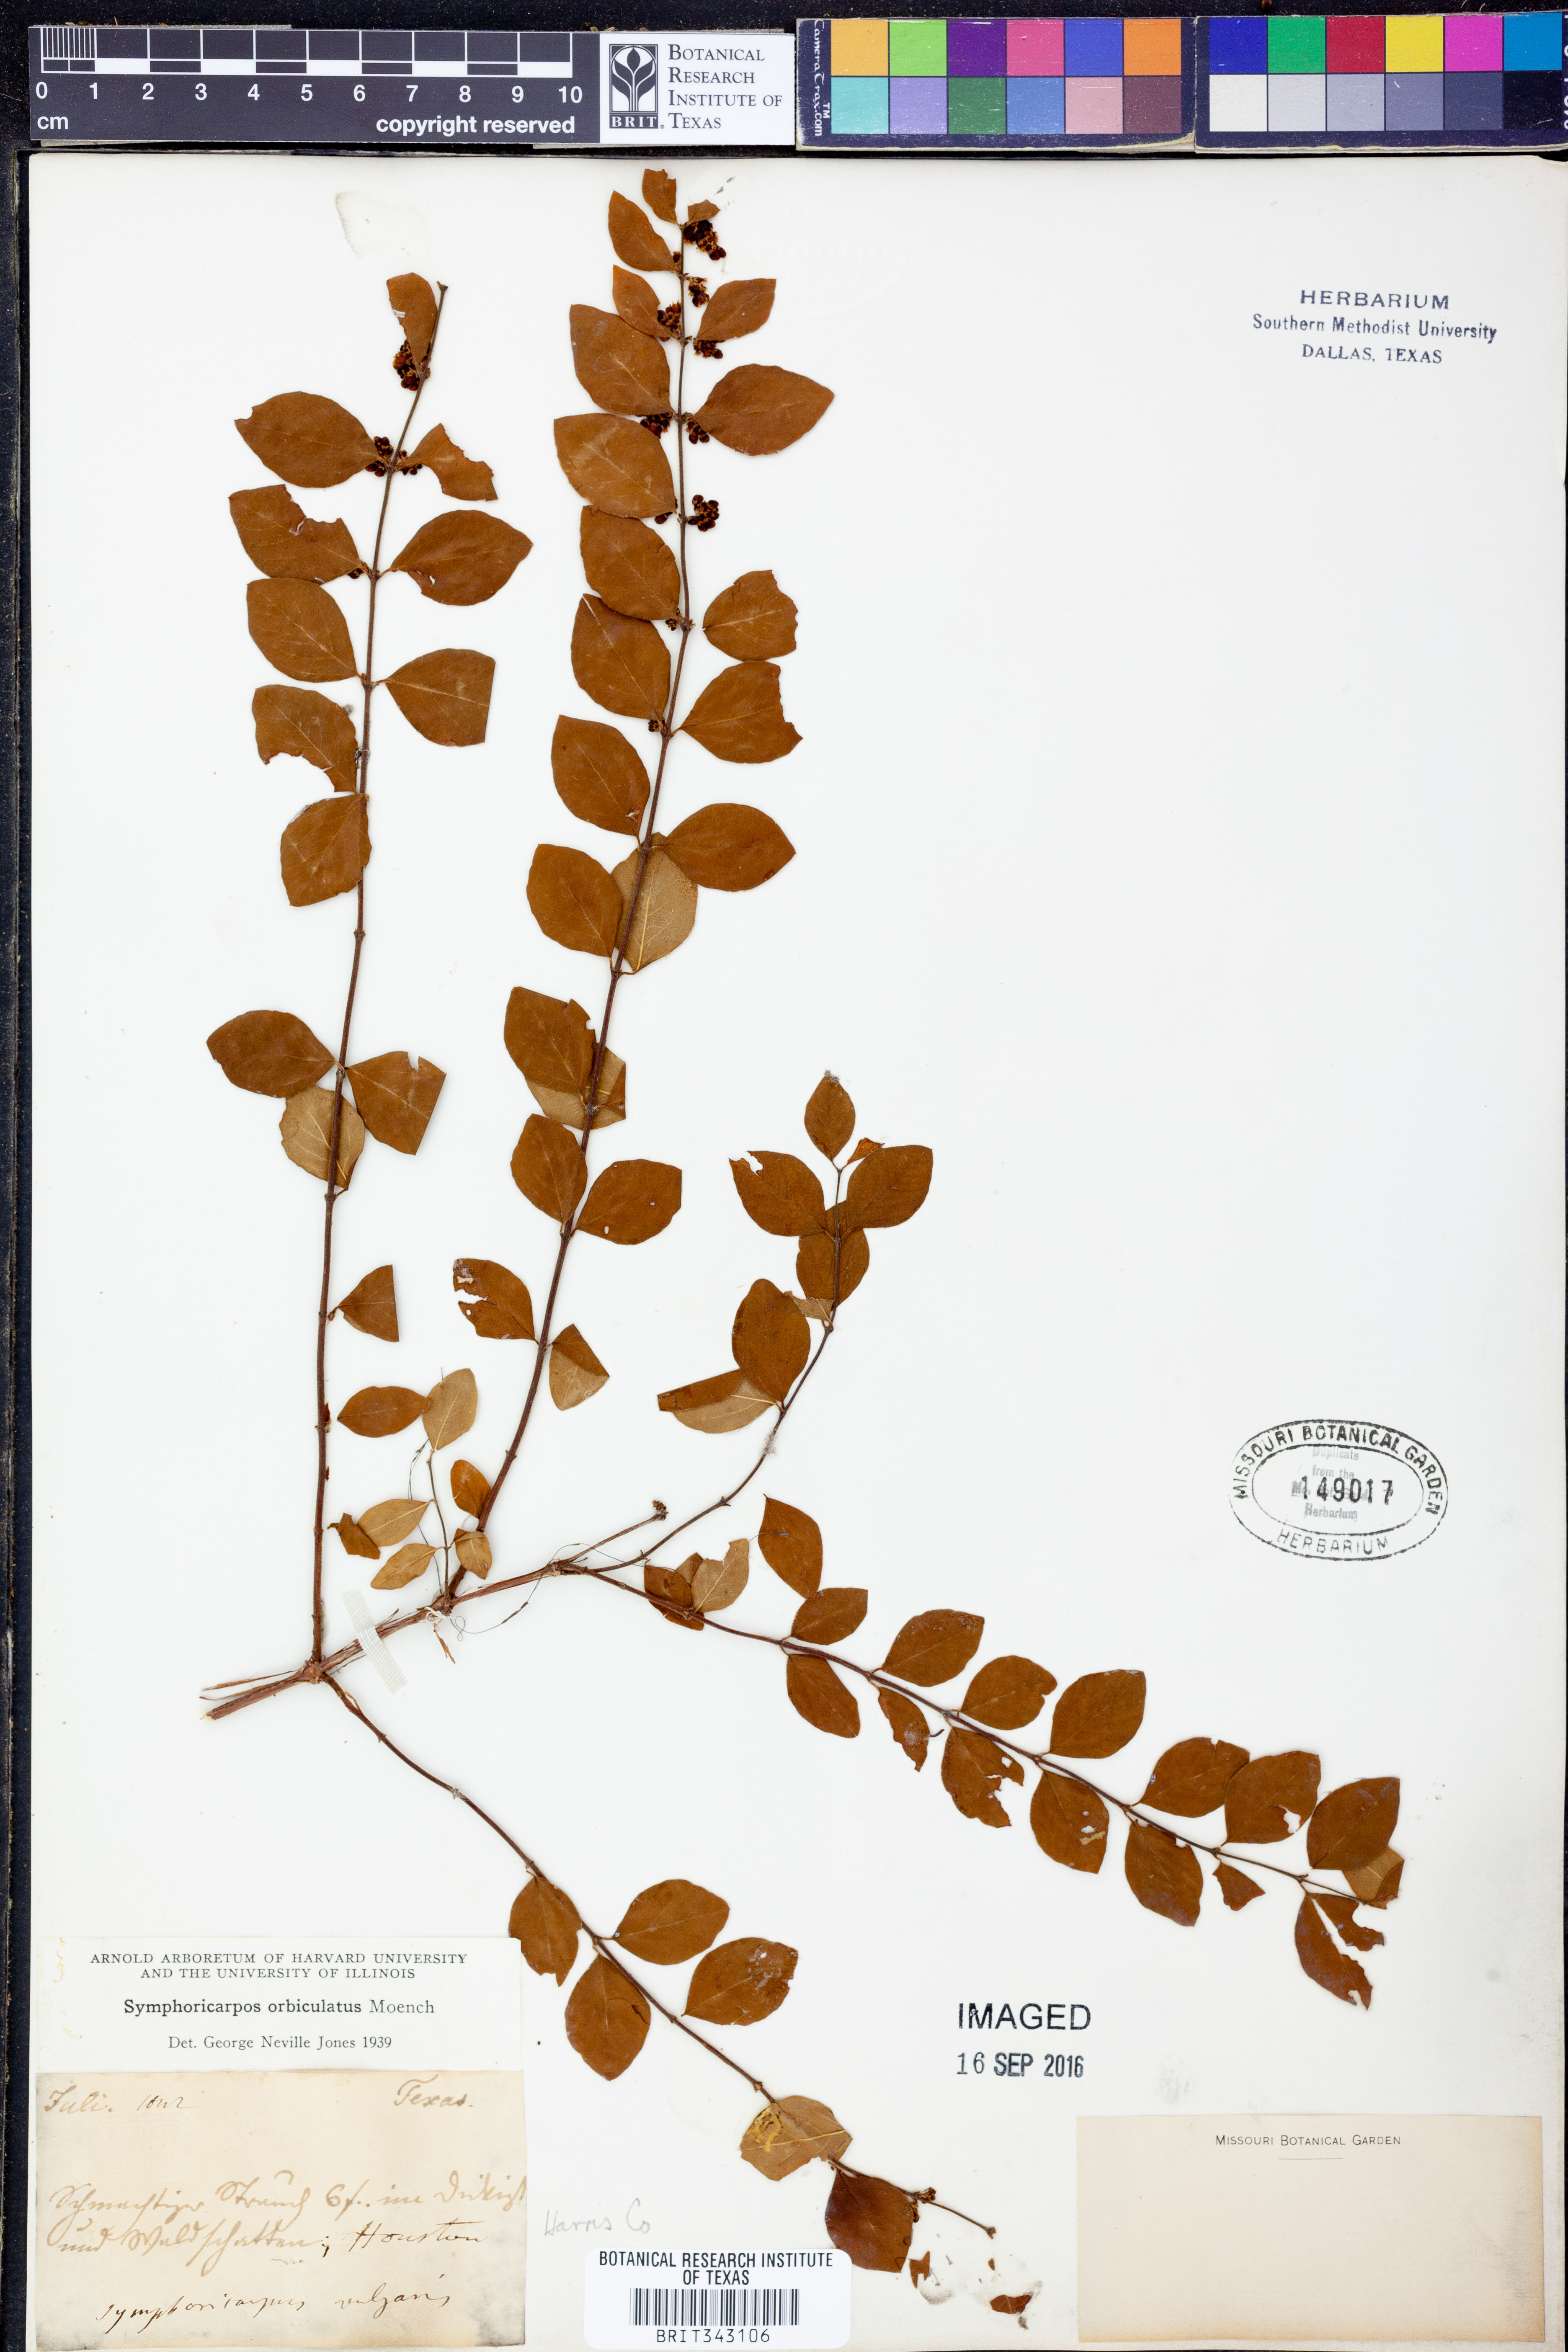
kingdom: Plantae
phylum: Tracheophyta
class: Magnoliopsida
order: Dipsacales
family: Caprifoliaceae
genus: Symphoricarpos
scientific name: Symphoricarpos orbiculatus
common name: Coralberry
